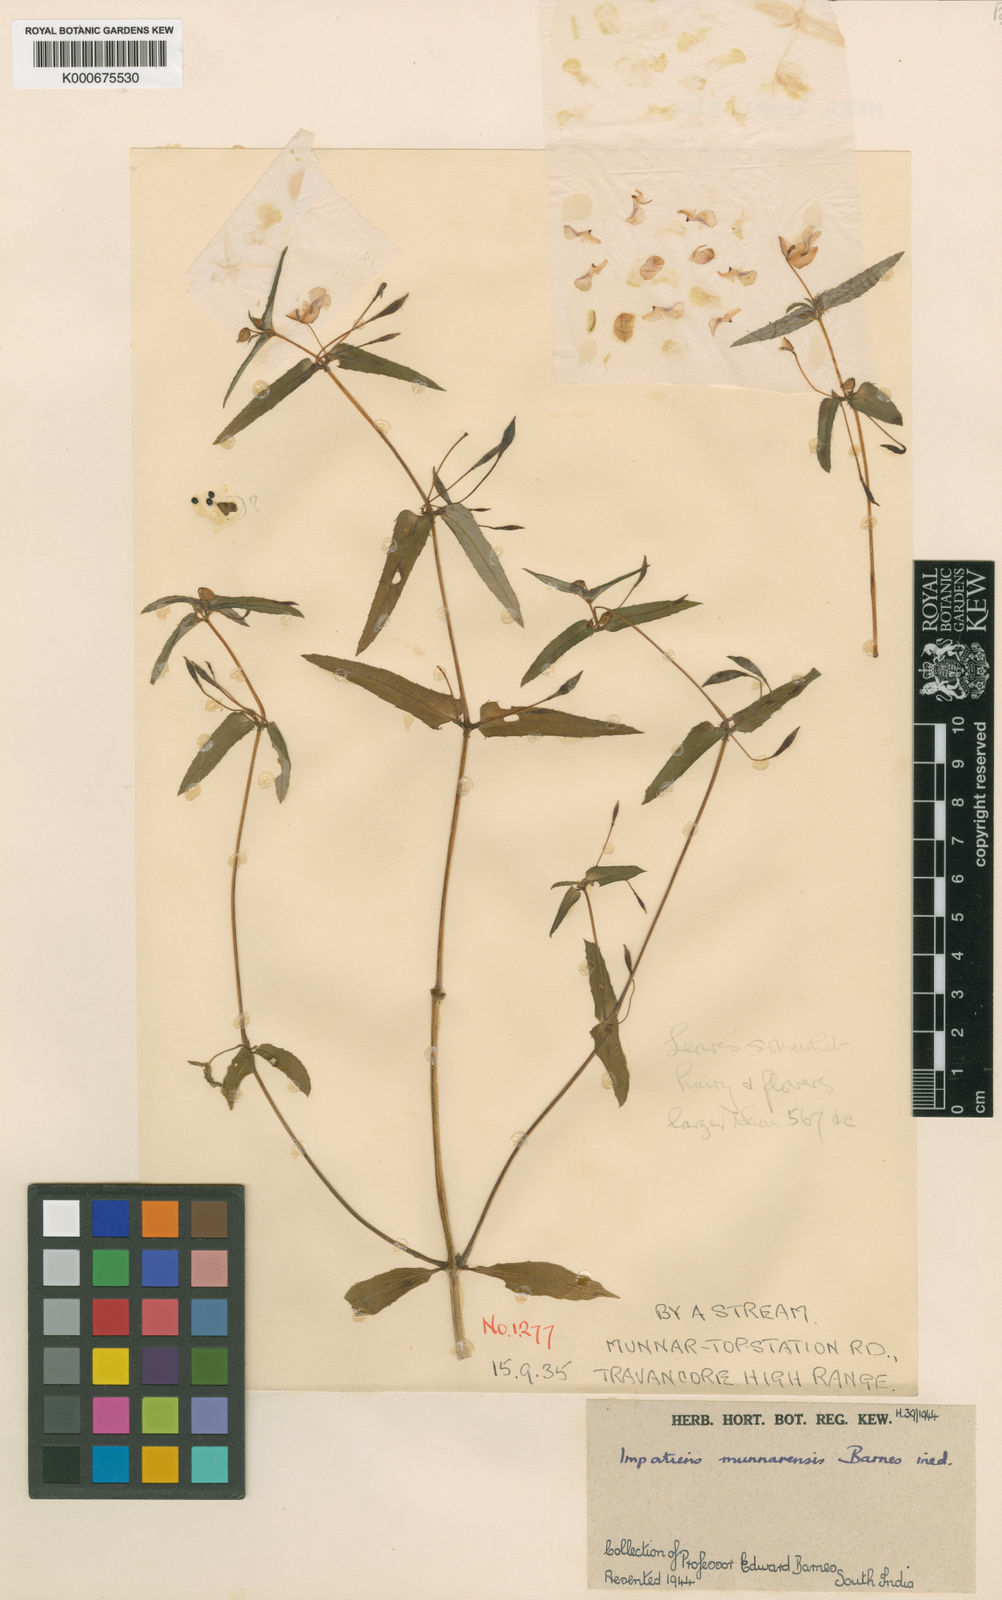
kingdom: Plantae
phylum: Tracheophyta
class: Magnoliopsida
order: Ericales
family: Balsaminaceae
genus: Impatiens
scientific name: Impatiens munnarensis
